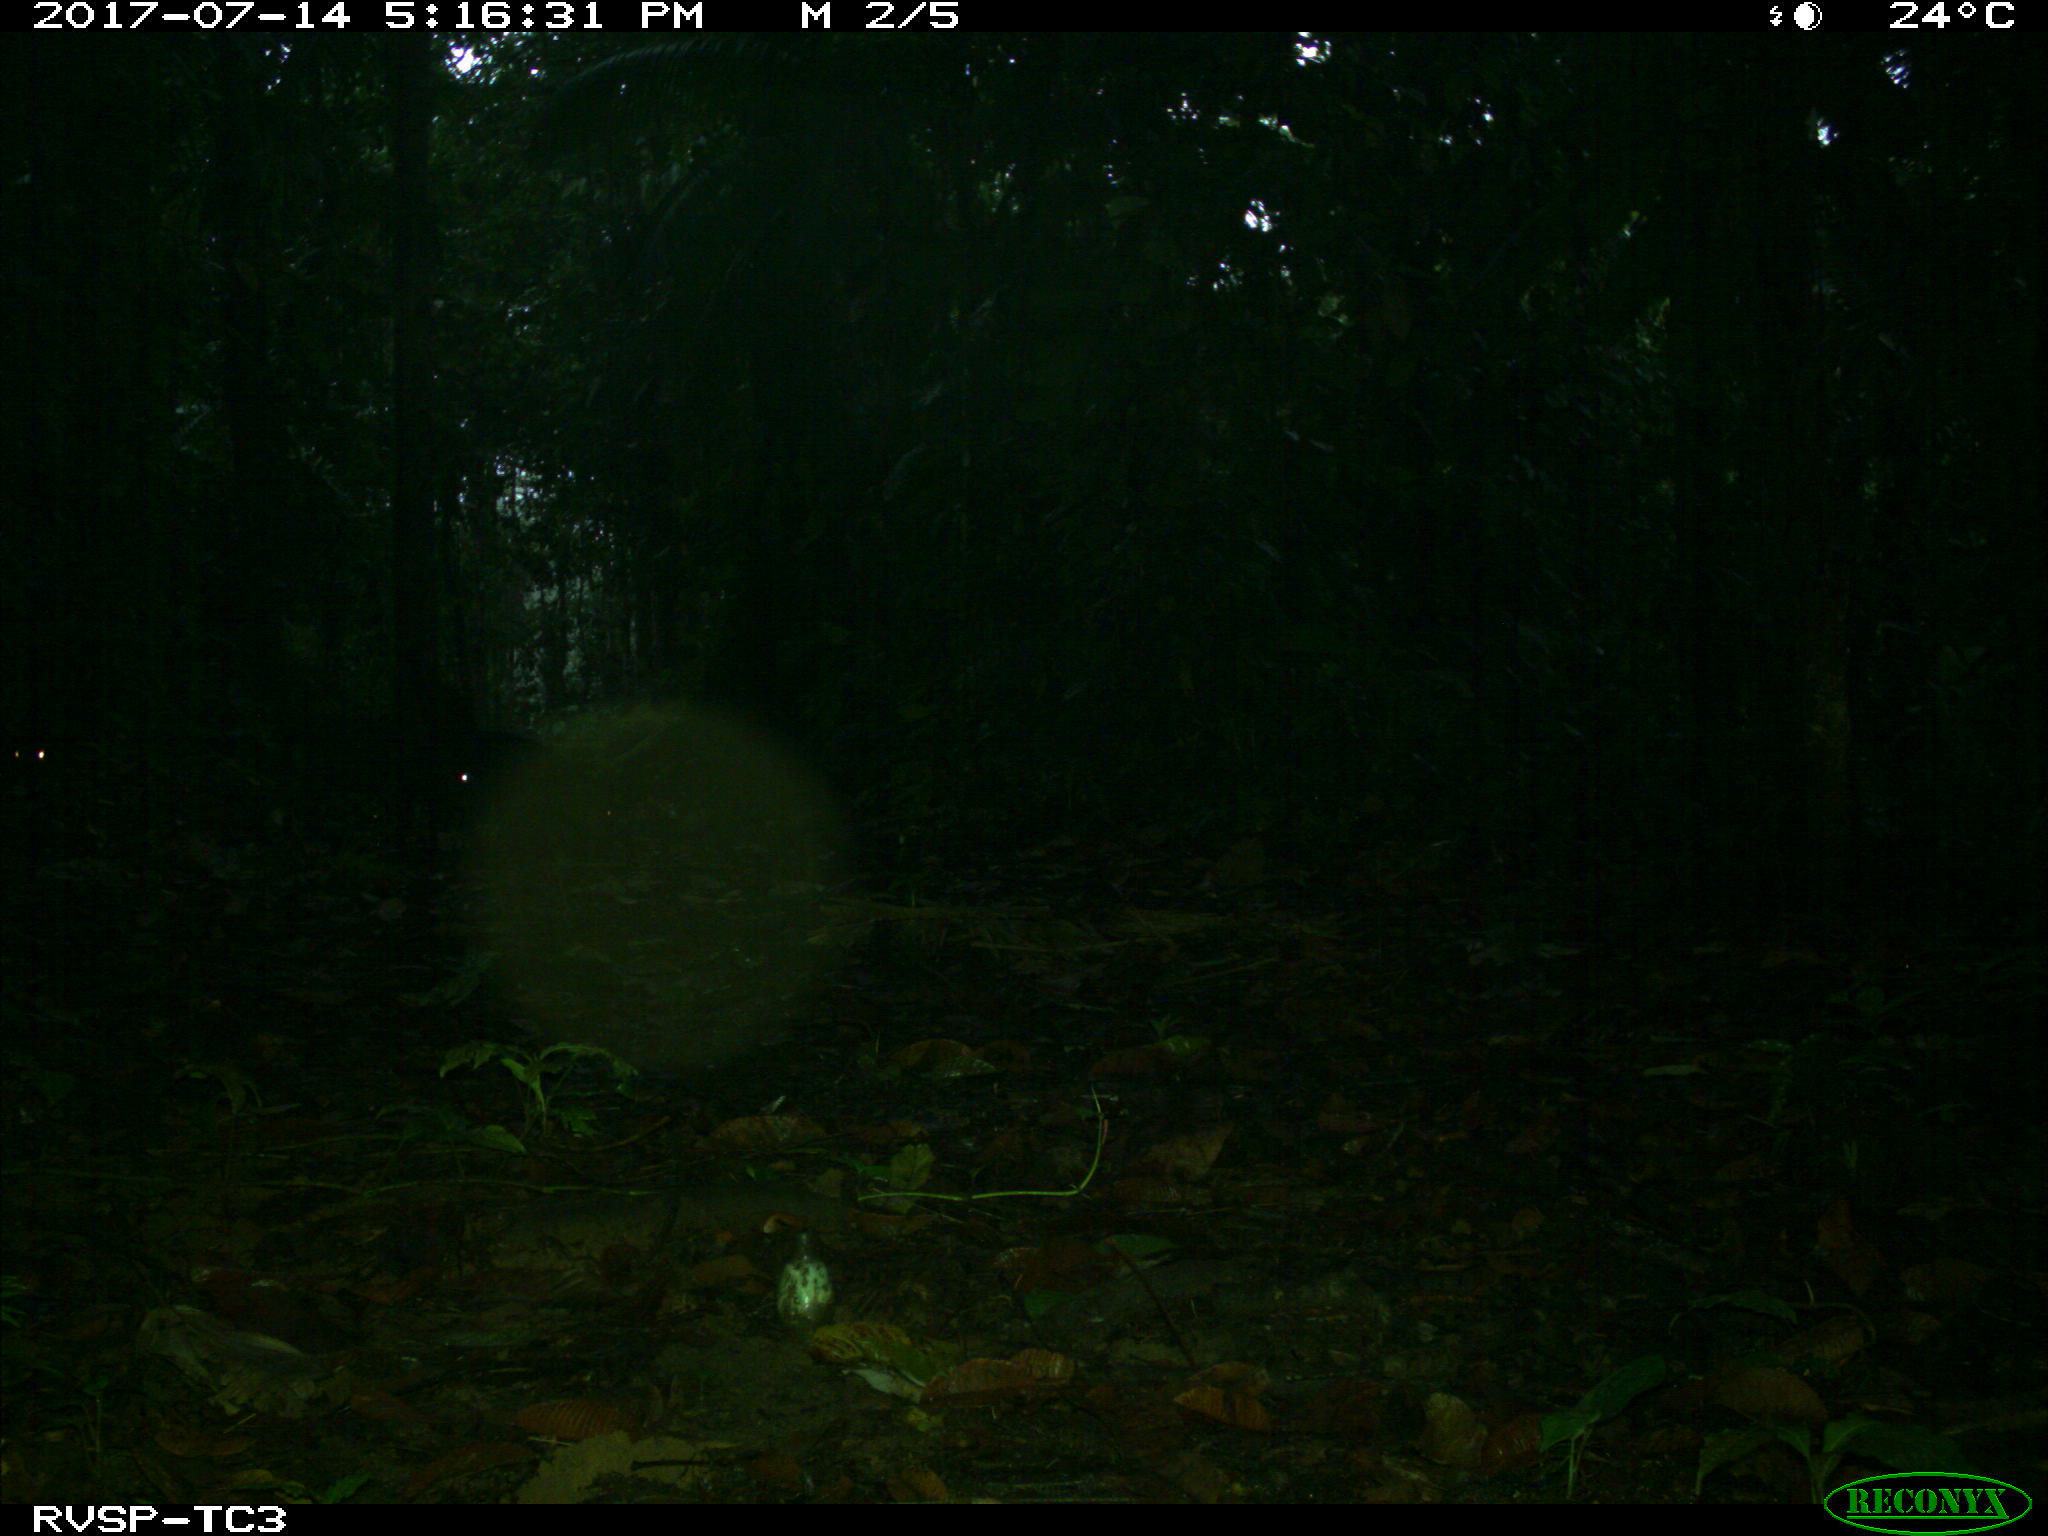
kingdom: Animalia
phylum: Chordata
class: Mammalia
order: Artiodactyla
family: Tayassuidae
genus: Tayassu
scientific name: Tayassu pecari
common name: White-lipped peccary
